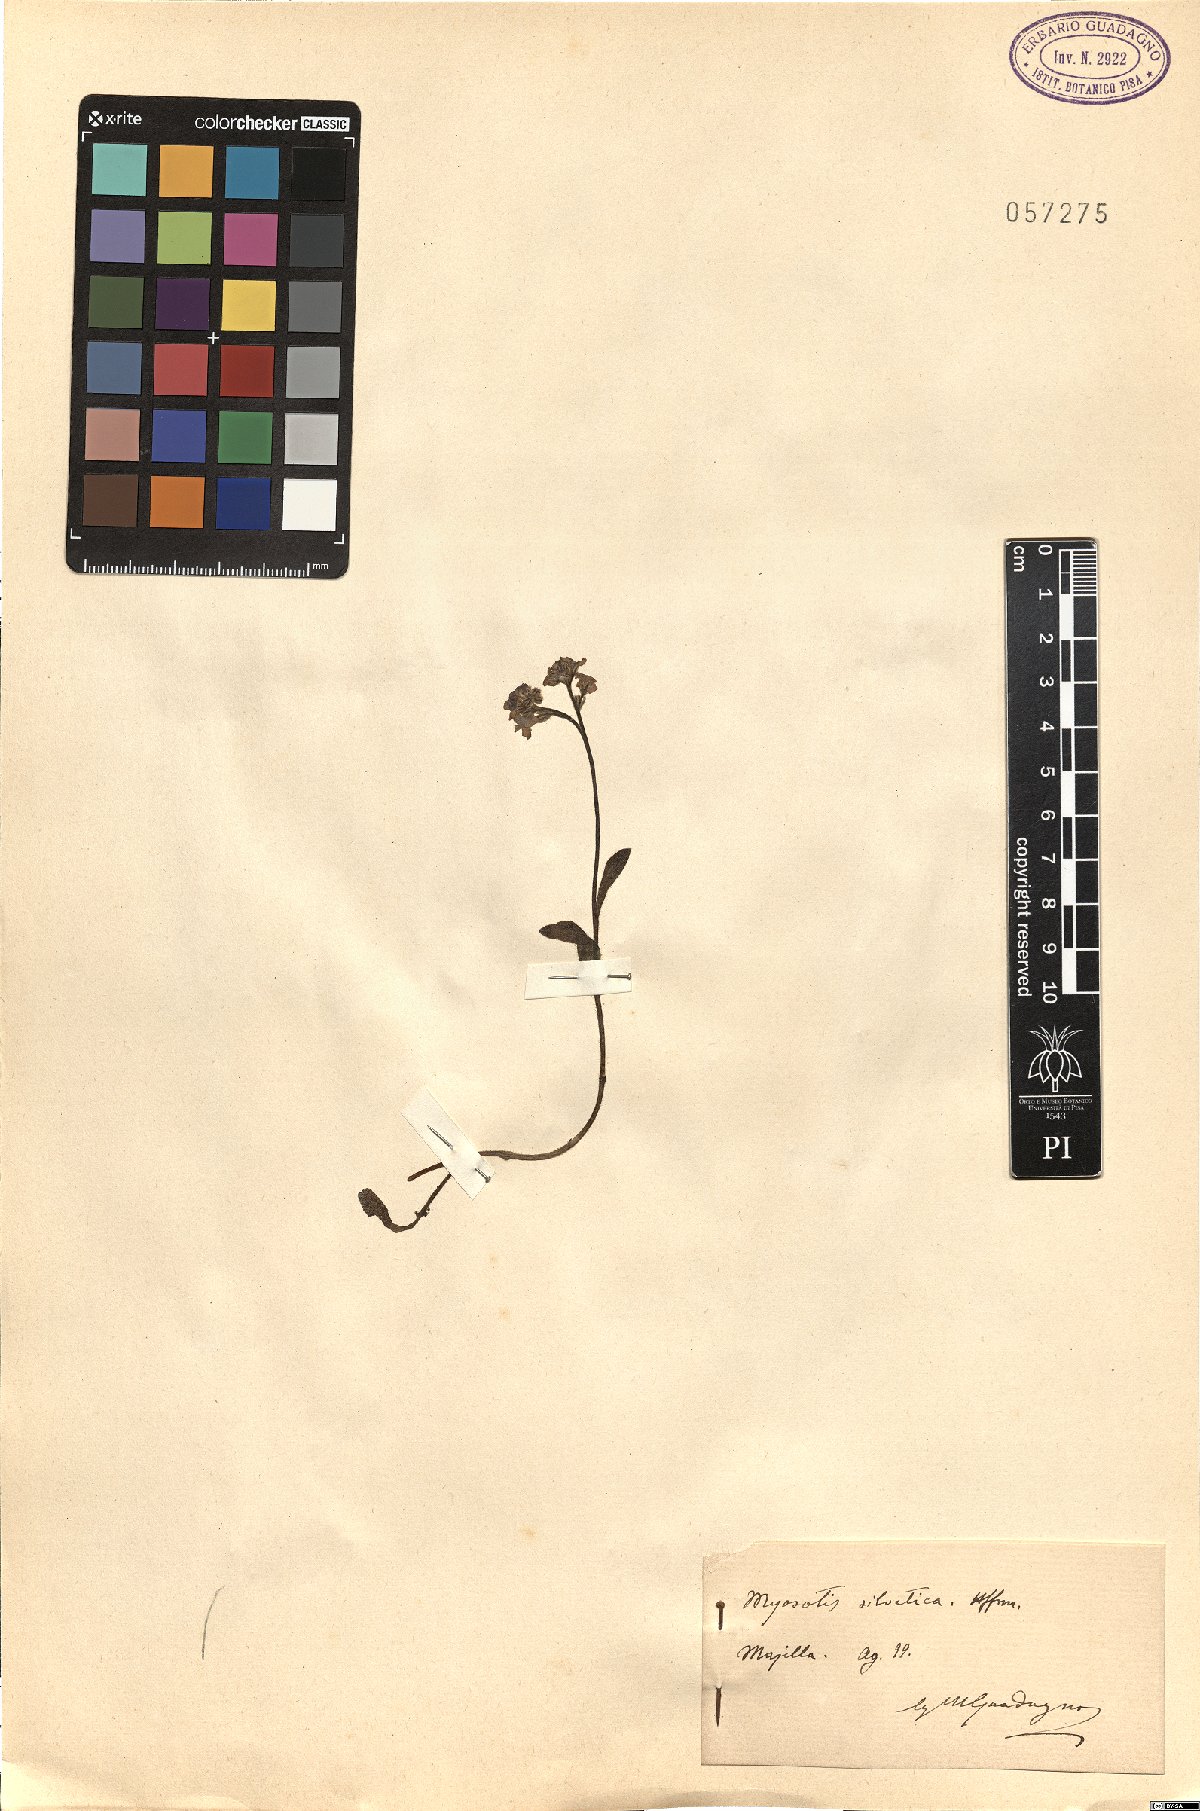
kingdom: Plantae
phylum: Tracheophyta
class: Magnoliopsida
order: Boraginales
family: Boraginaceae
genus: Myosotis
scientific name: Myosotis sylvatica
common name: Wood forget-me-not
